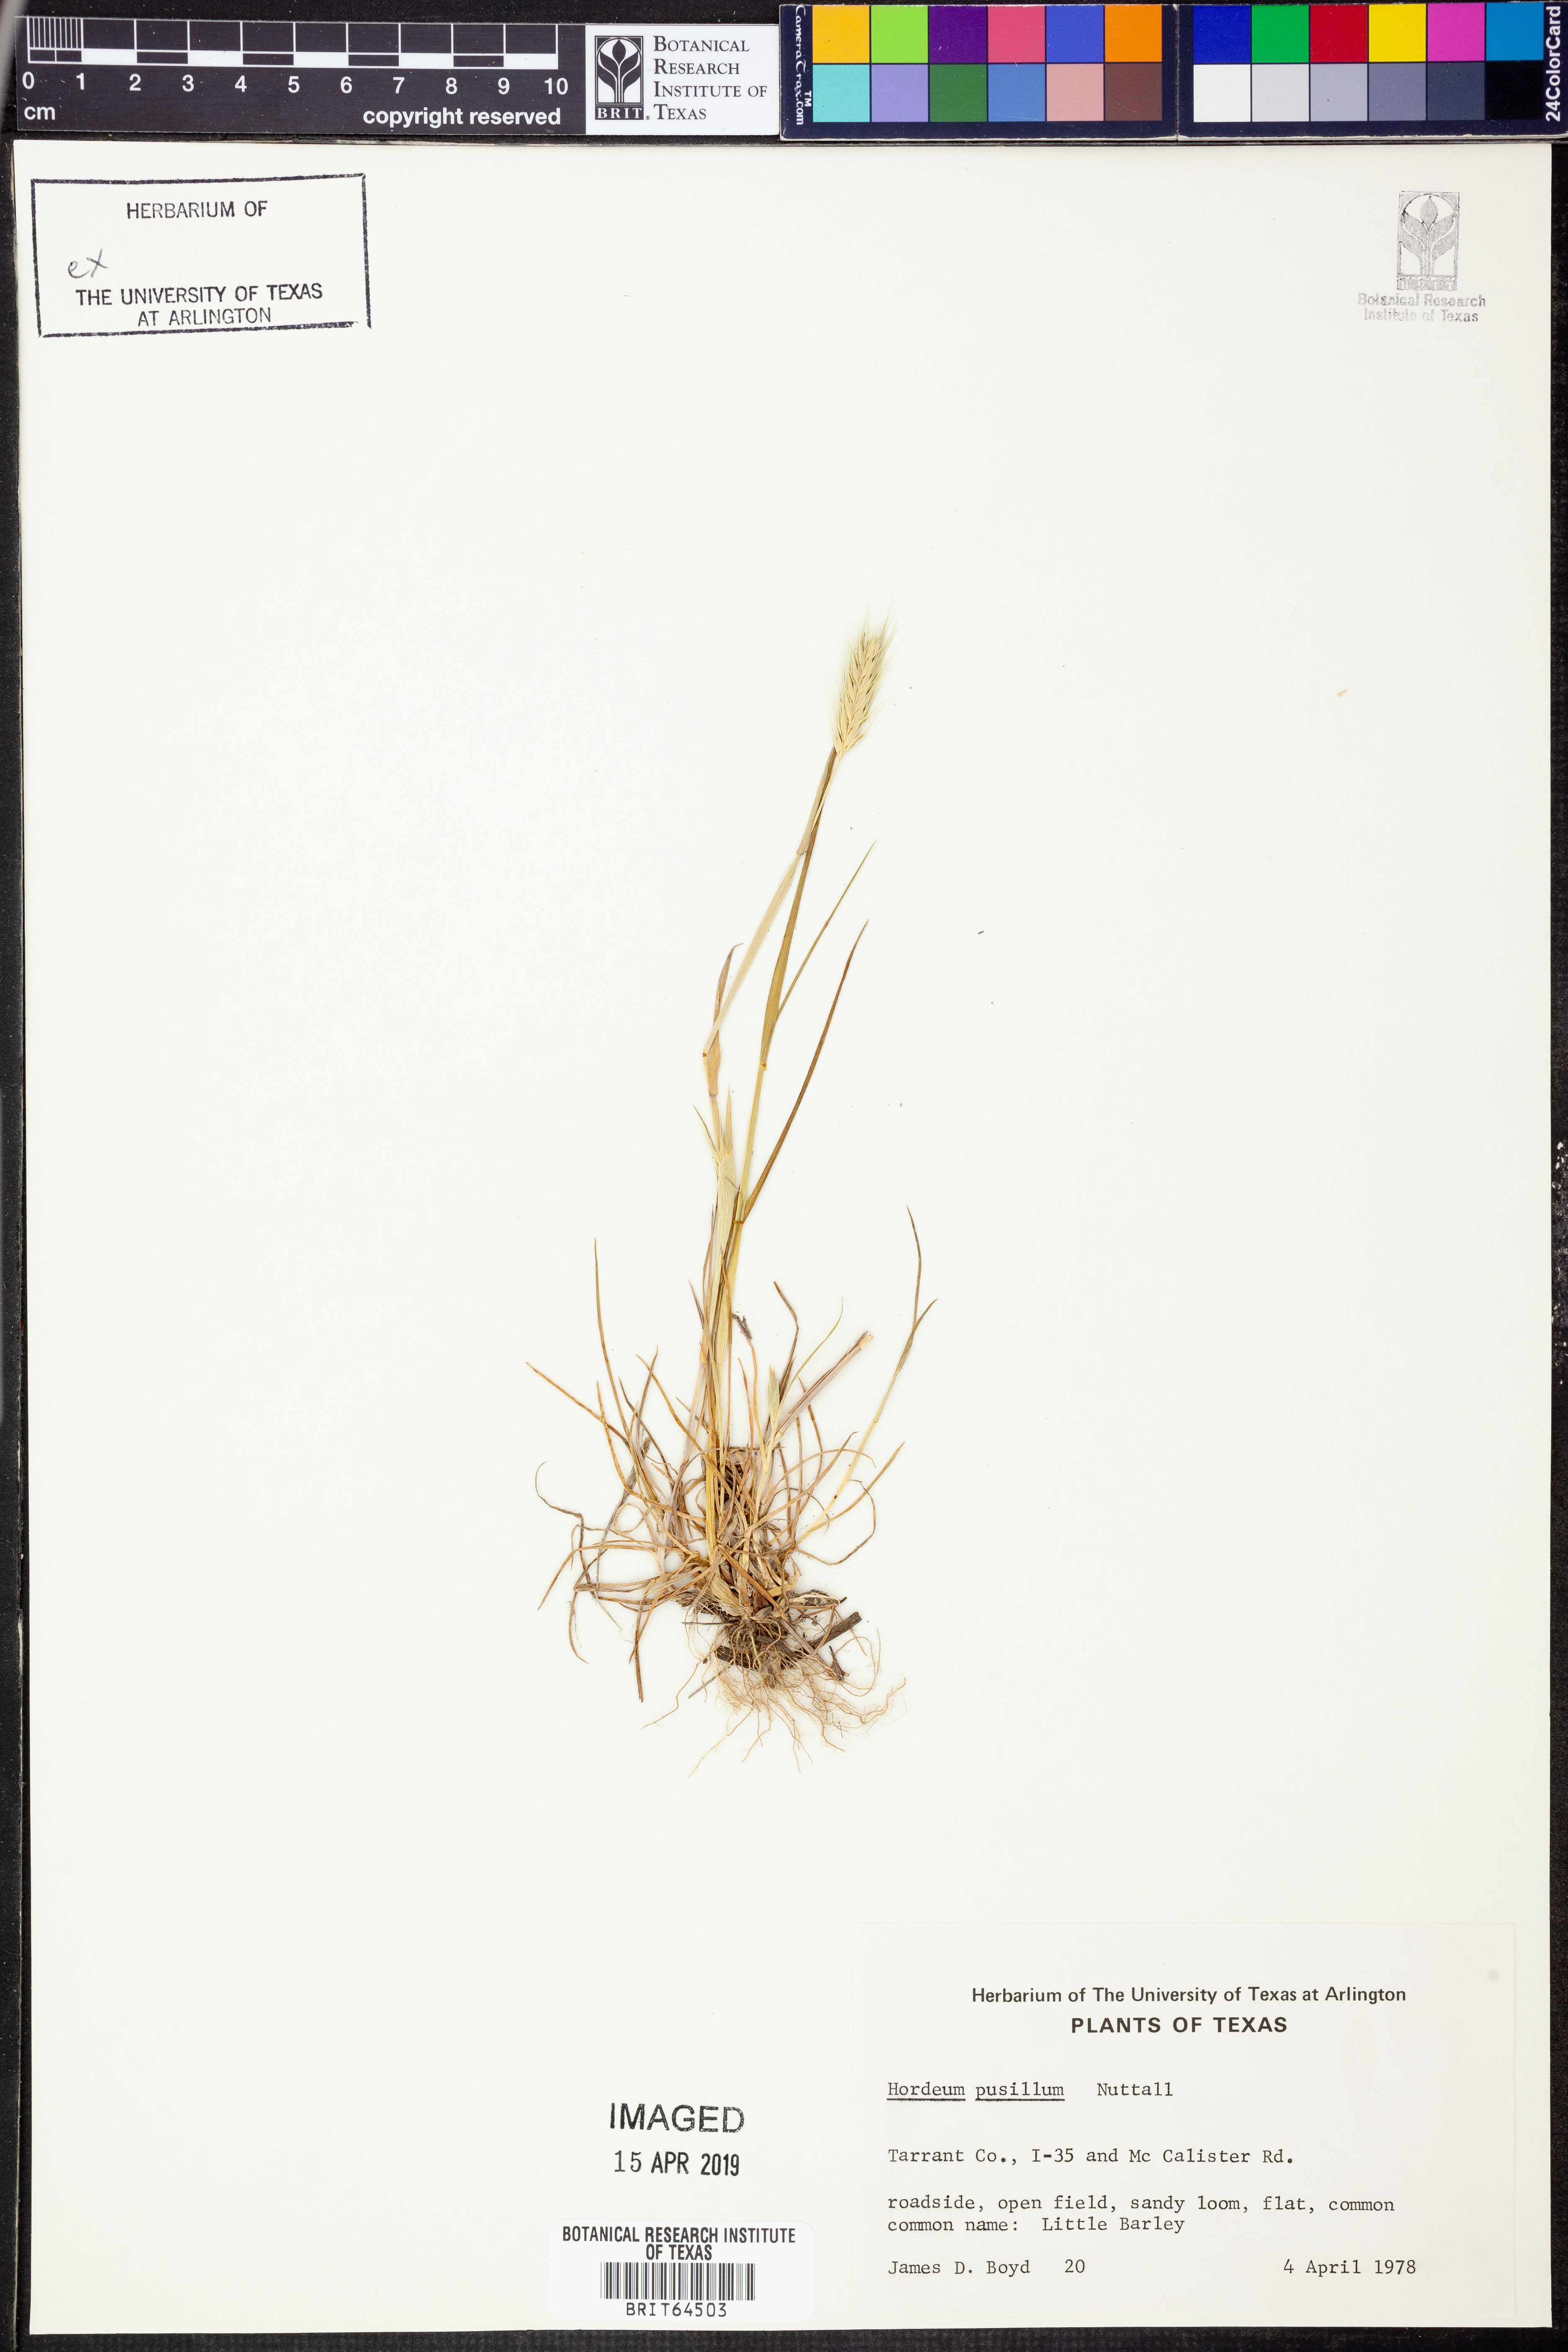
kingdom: Plantae
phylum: Tracheophyta
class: Liliopsida
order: Poales
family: Poaceae
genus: Hordeum
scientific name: Hordeum pusillum
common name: Little barley
